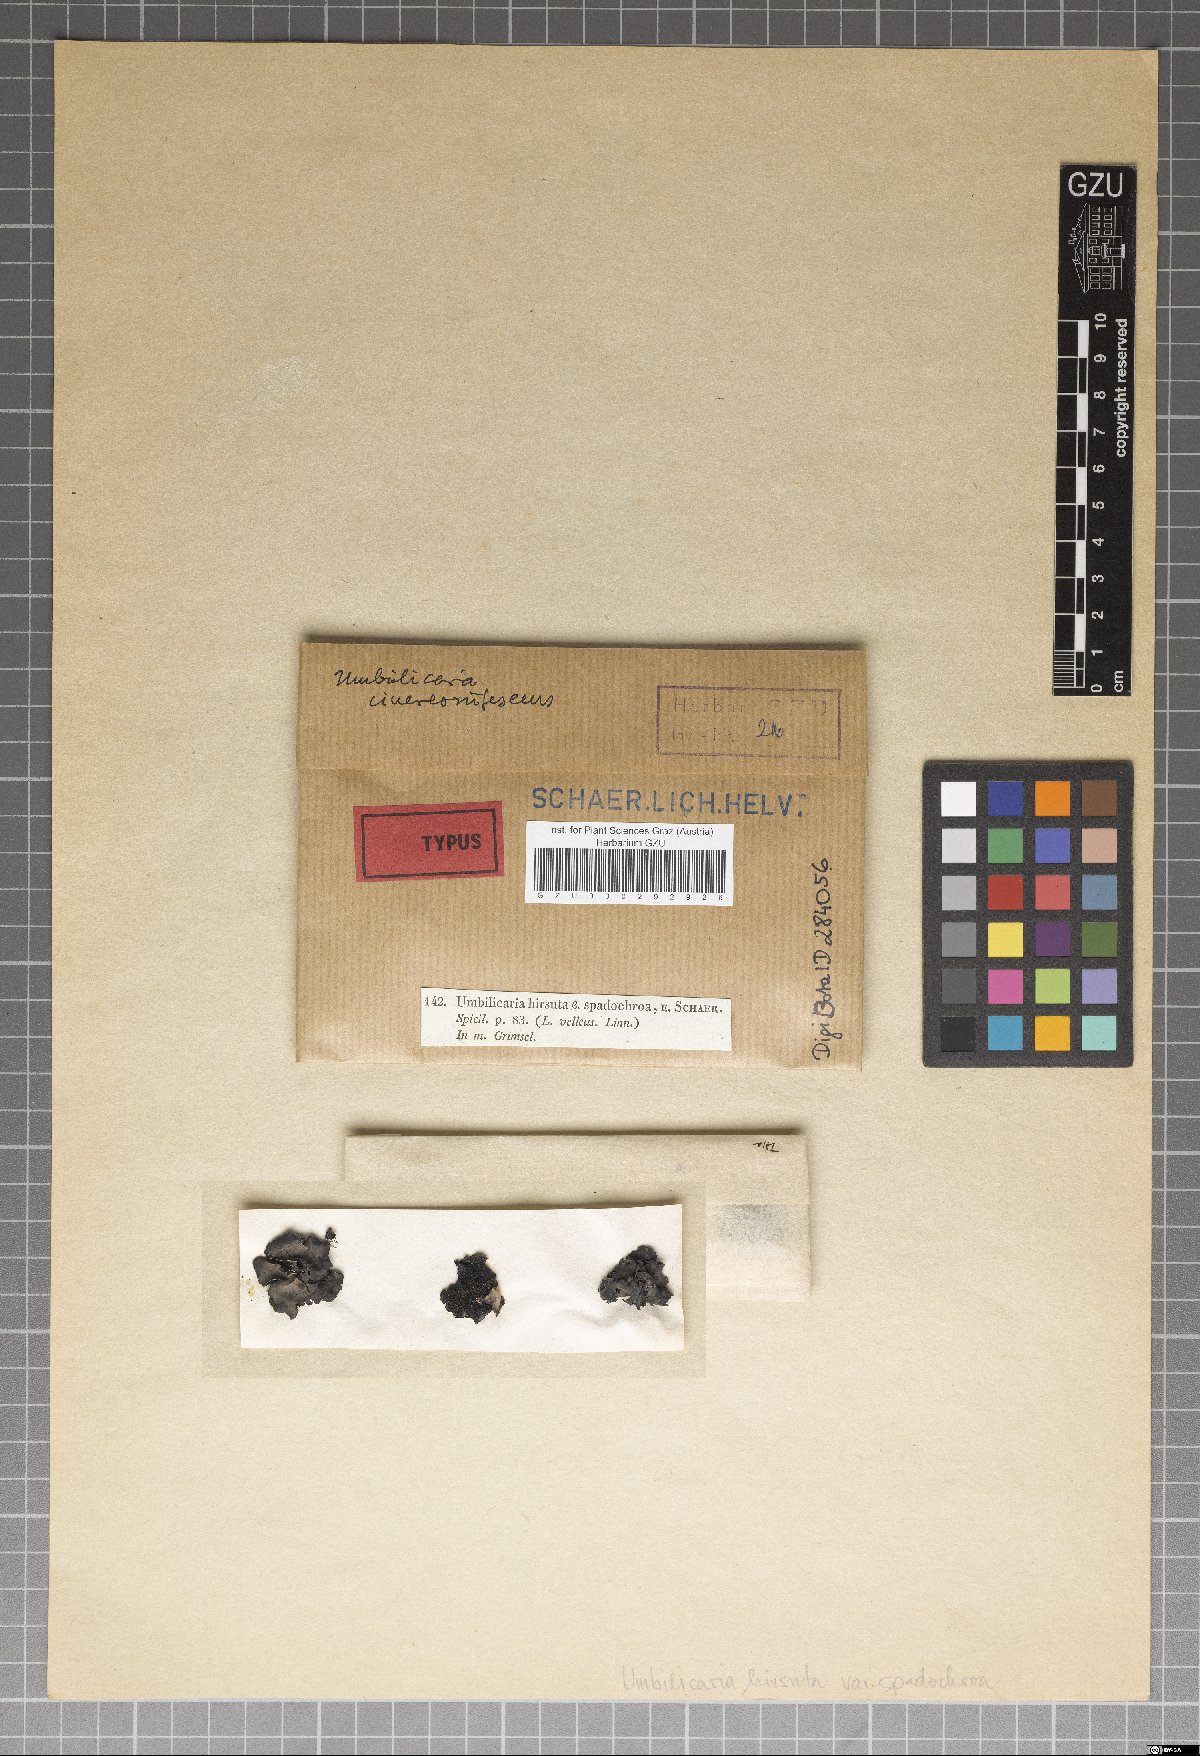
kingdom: Fungi
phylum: Ascomycota
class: Lecanoromycetes
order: Umbilicariales
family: Umbilicariaceae
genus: Umbilicaria
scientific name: Umbilicaria cinereorufescens
